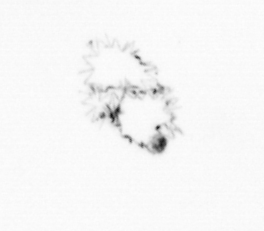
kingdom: Chromista
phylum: Ochrophyta
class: Bacillariophyceae
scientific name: Bacillariophyceae
